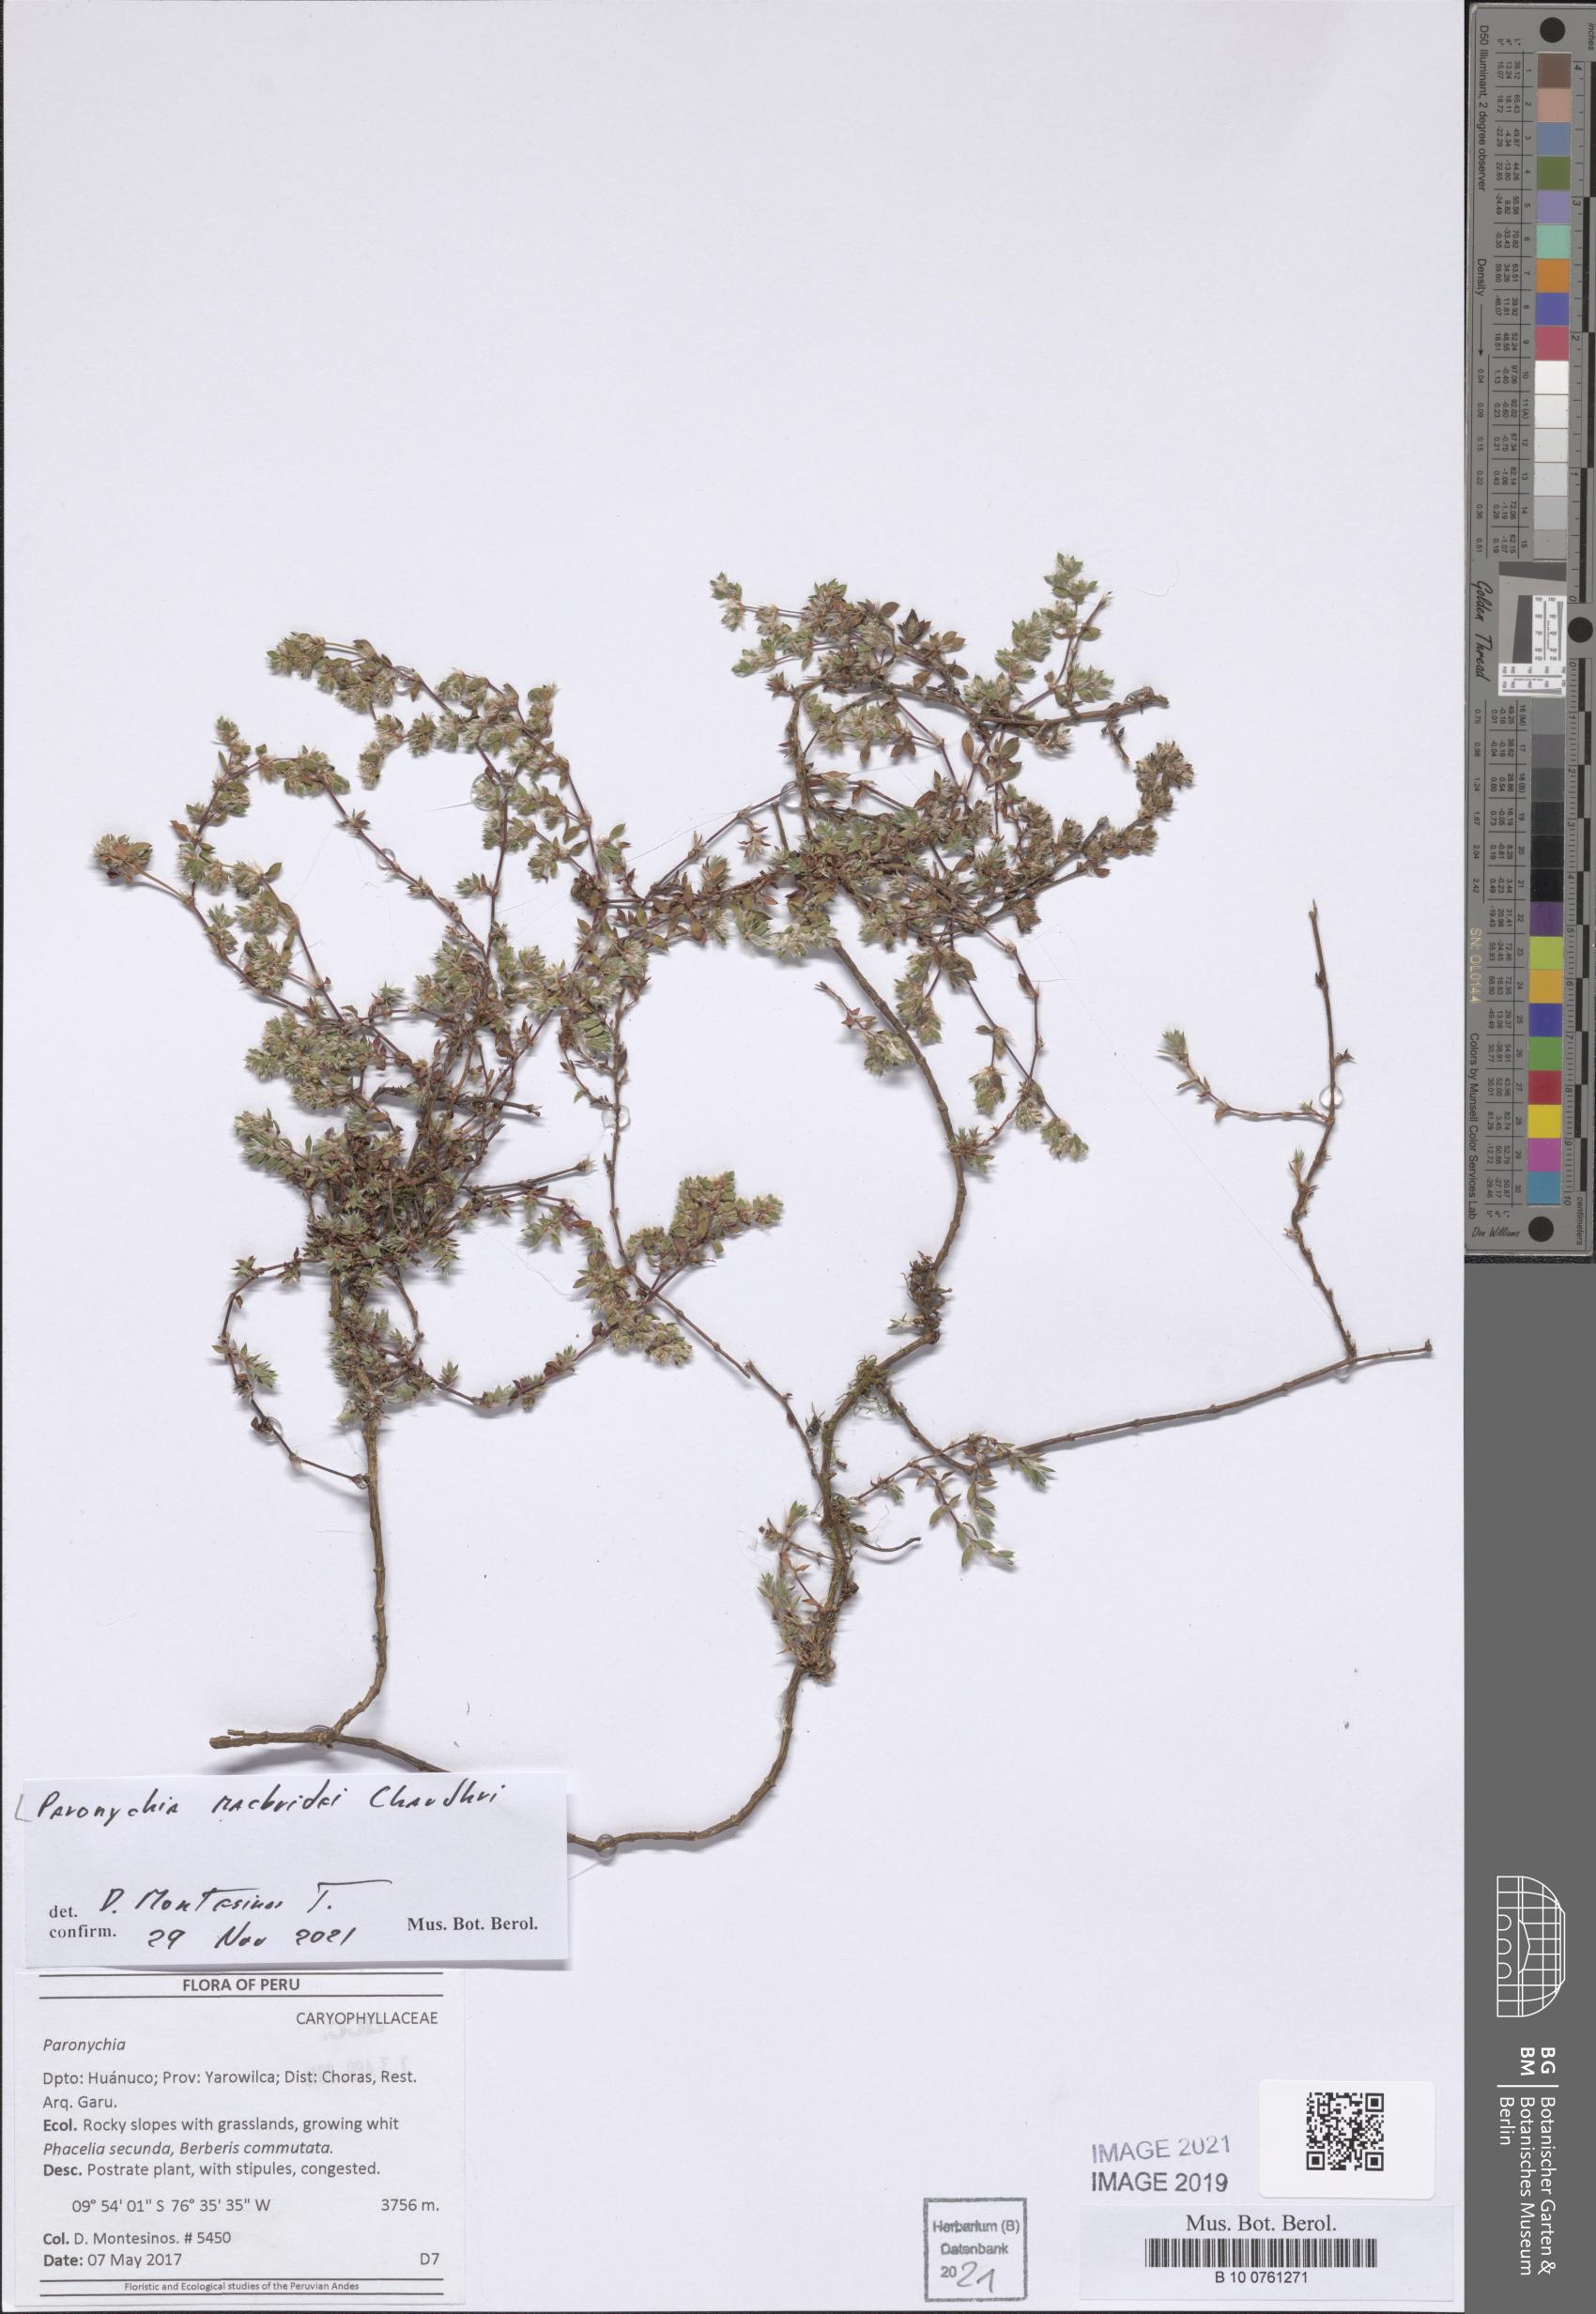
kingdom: Plantae
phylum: Tracheophyta
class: Magnoliopsida
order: Caryophyllales
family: Caryophyllaceae
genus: Paronychia
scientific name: Paronychia macbridei
